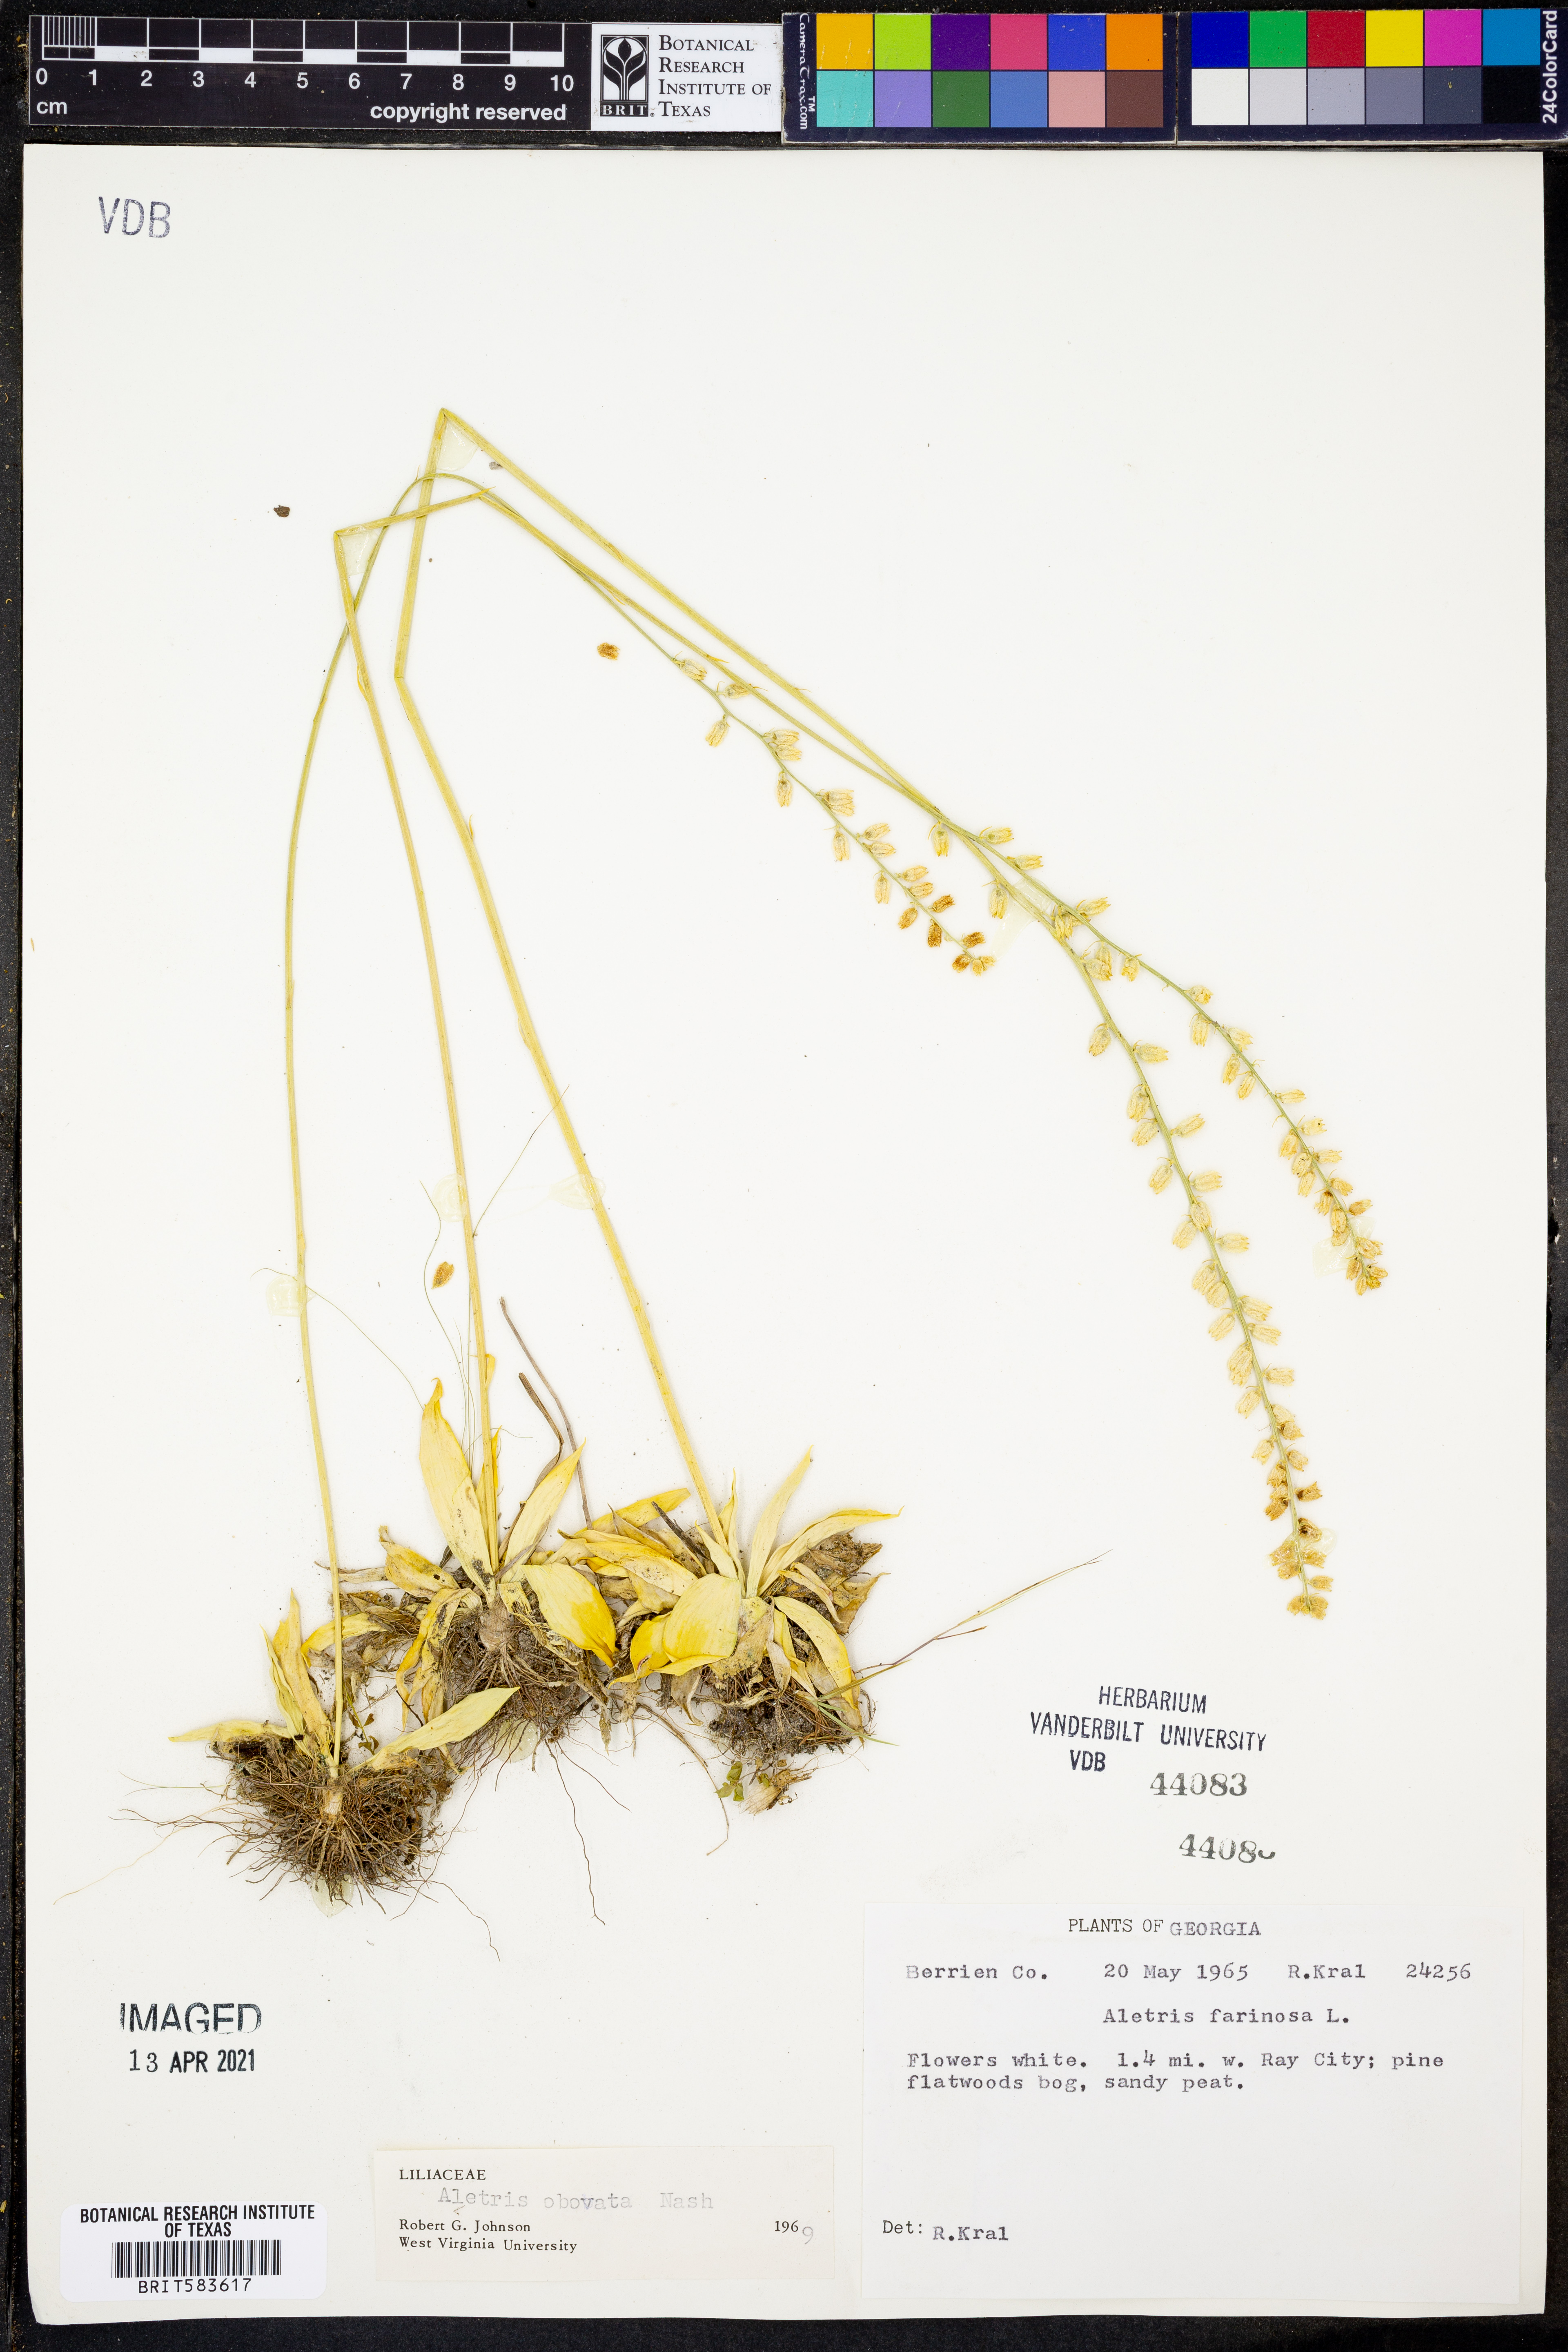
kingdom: Plantae
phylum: Tracheophyta
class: Liliopsida
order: Dioscoreales
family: Nartheciaceae
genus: Aletris
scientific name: Aletris farinosa
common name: Colicroot
